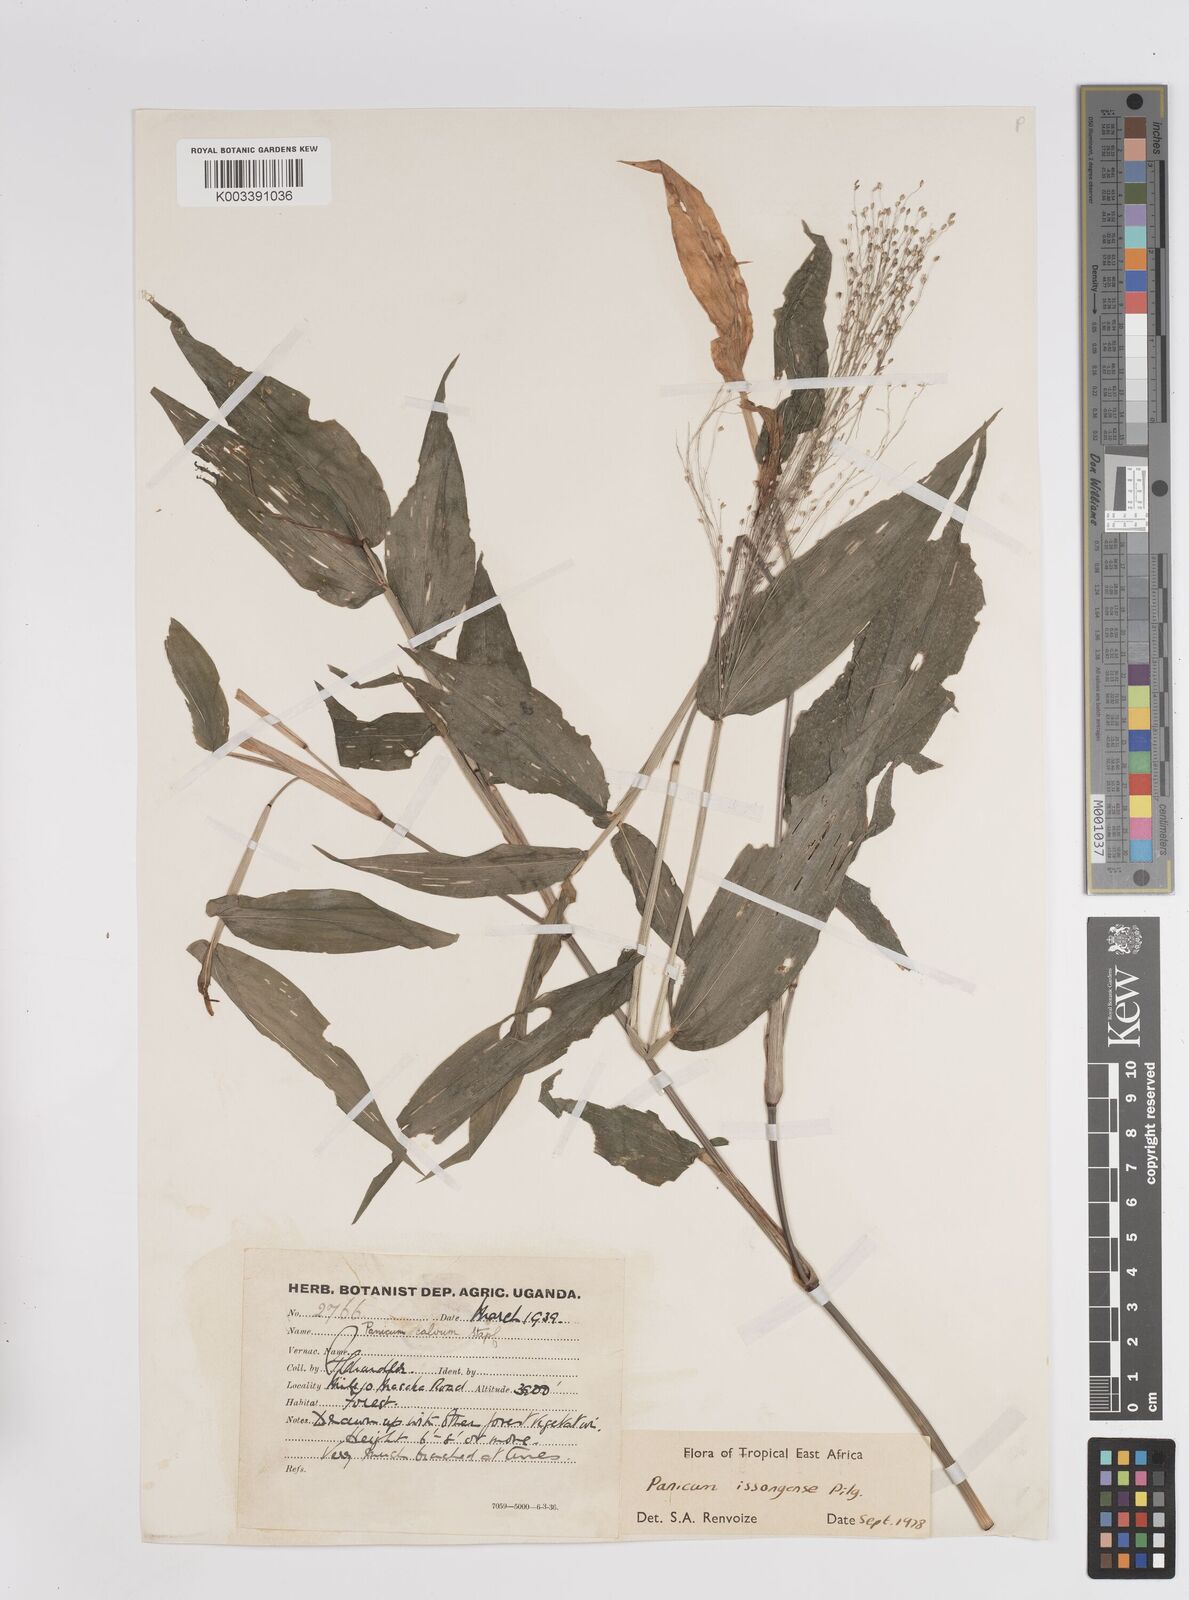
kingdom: Plantae
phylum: Tracheophyta
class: Liliopsida
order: Poales
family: Poaceae
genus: Panicum
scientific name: Panicum issongense
